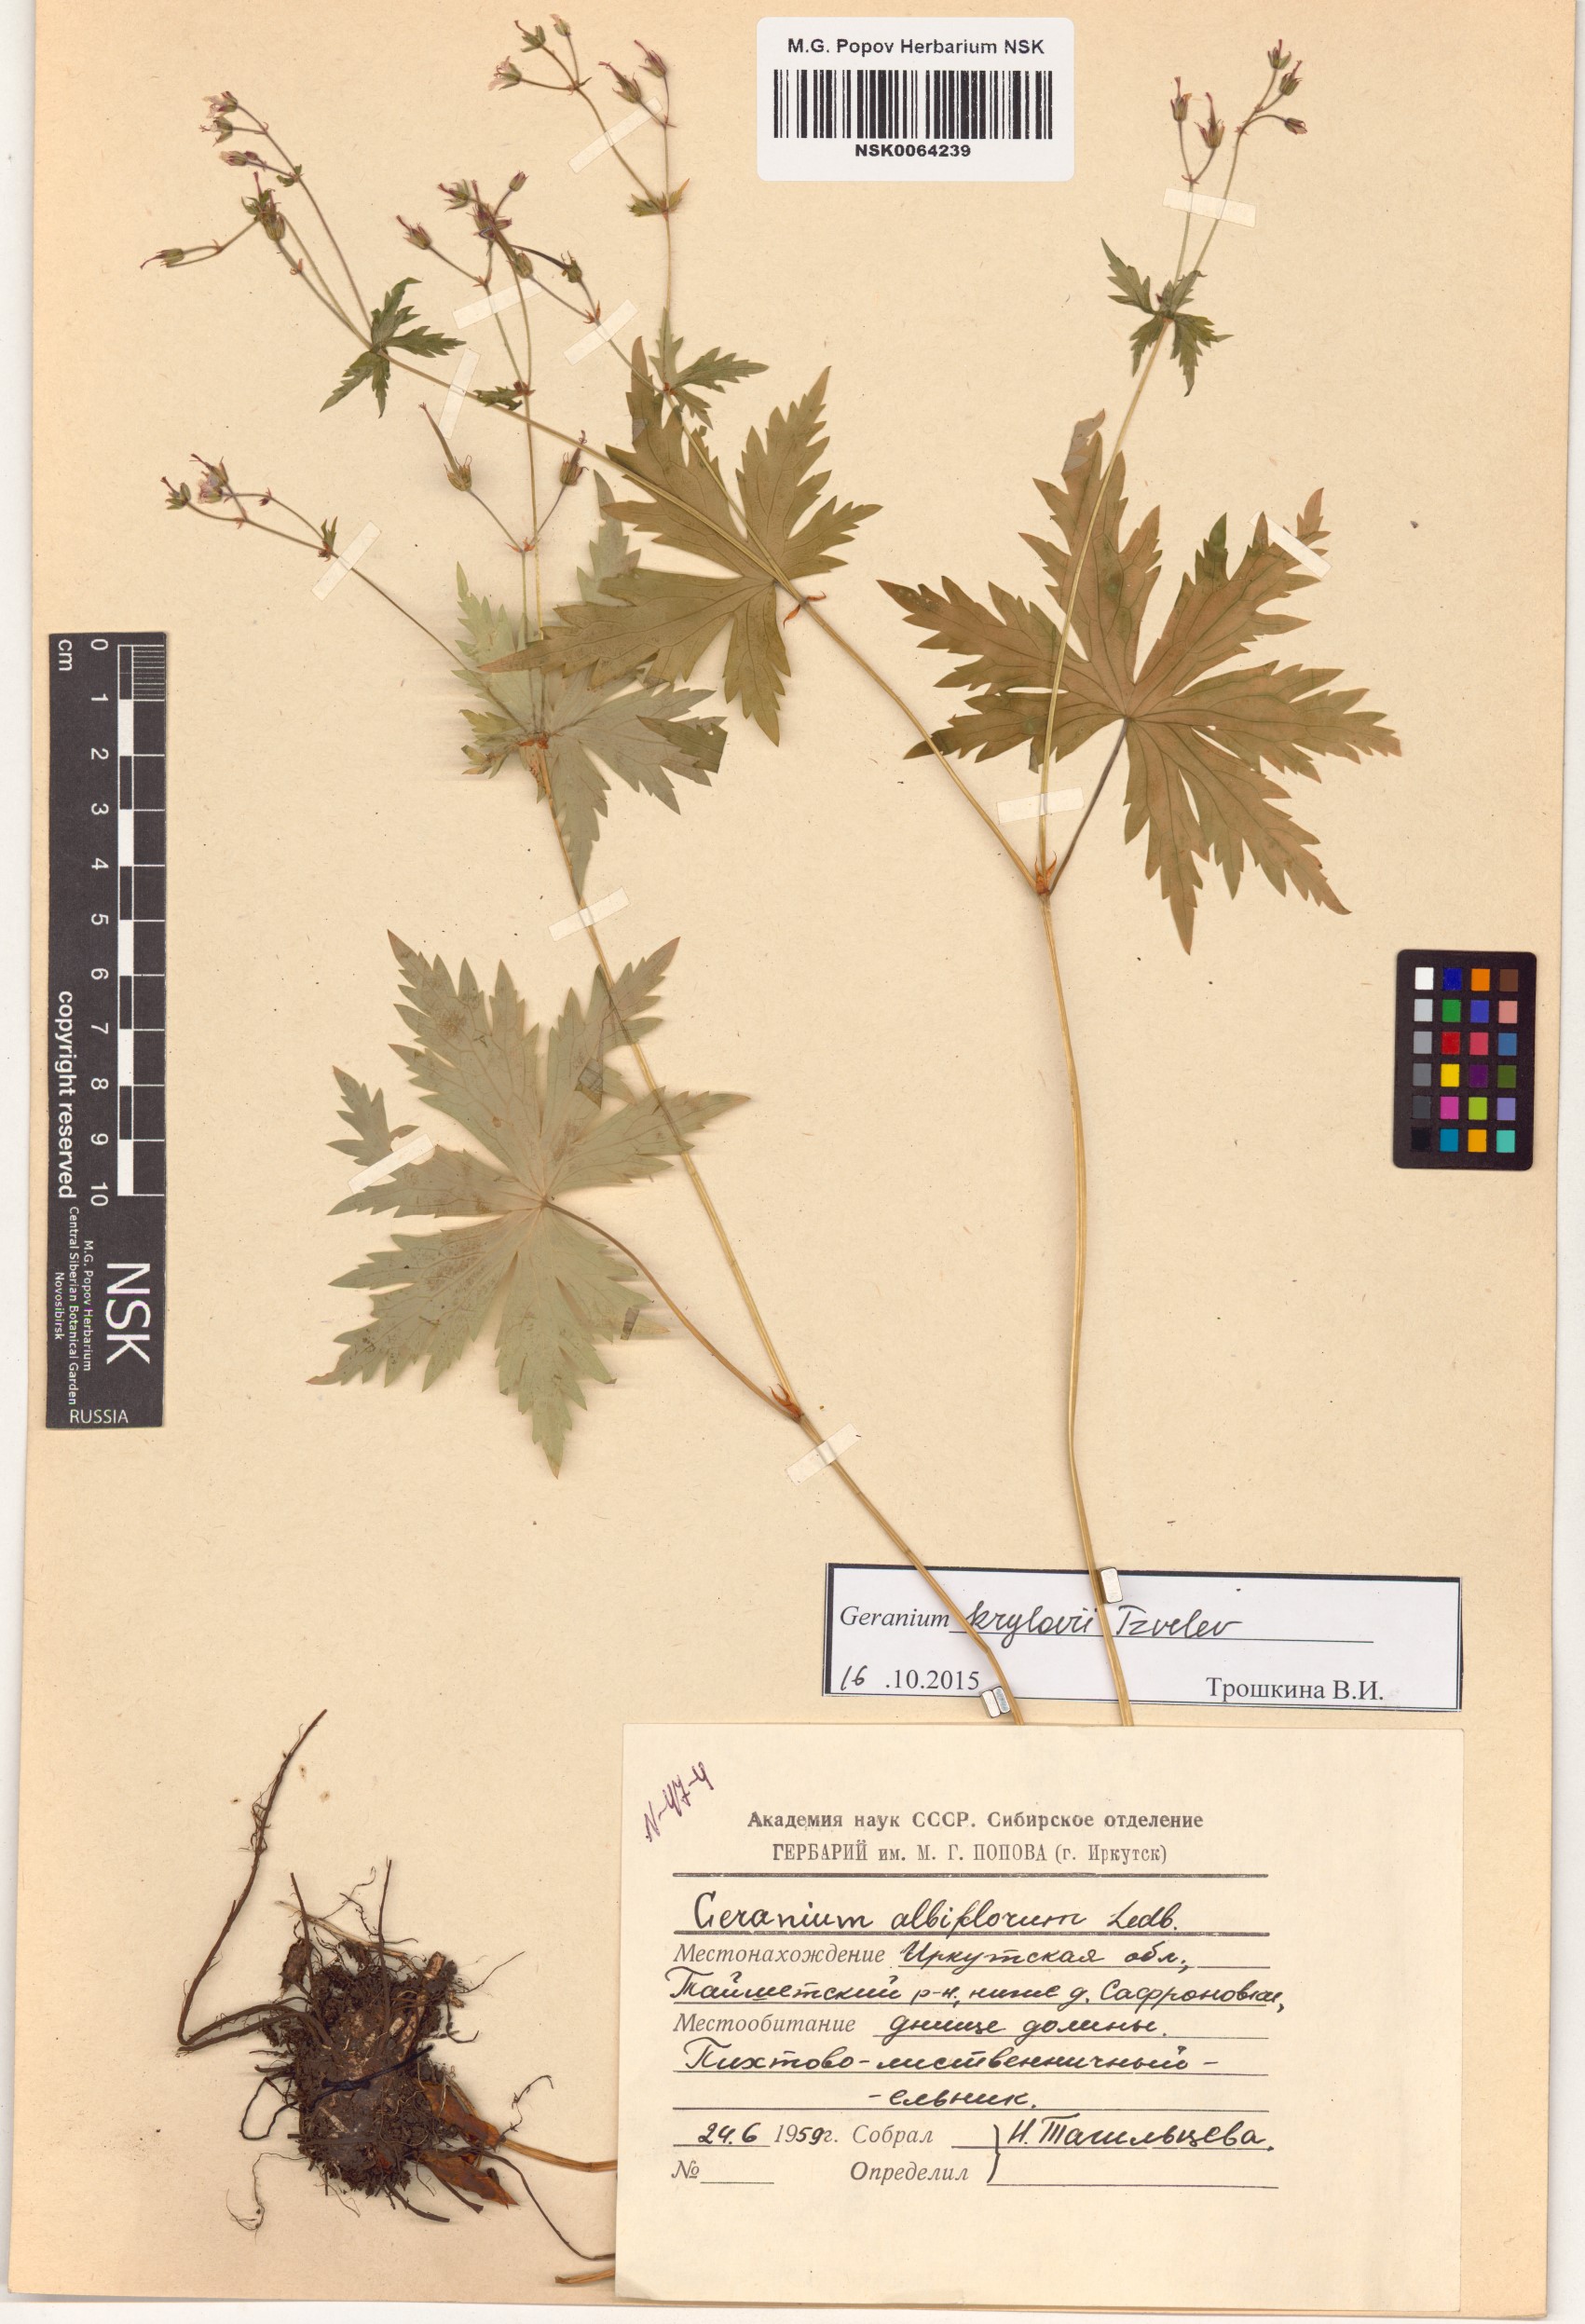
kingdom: Plantae
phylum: Tracheophyta
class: Magnoliopsida
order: Geraniales
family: Geraniaceae
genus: Geranium
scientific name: Geranium sylvaticum
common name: Wood crane's-bill
